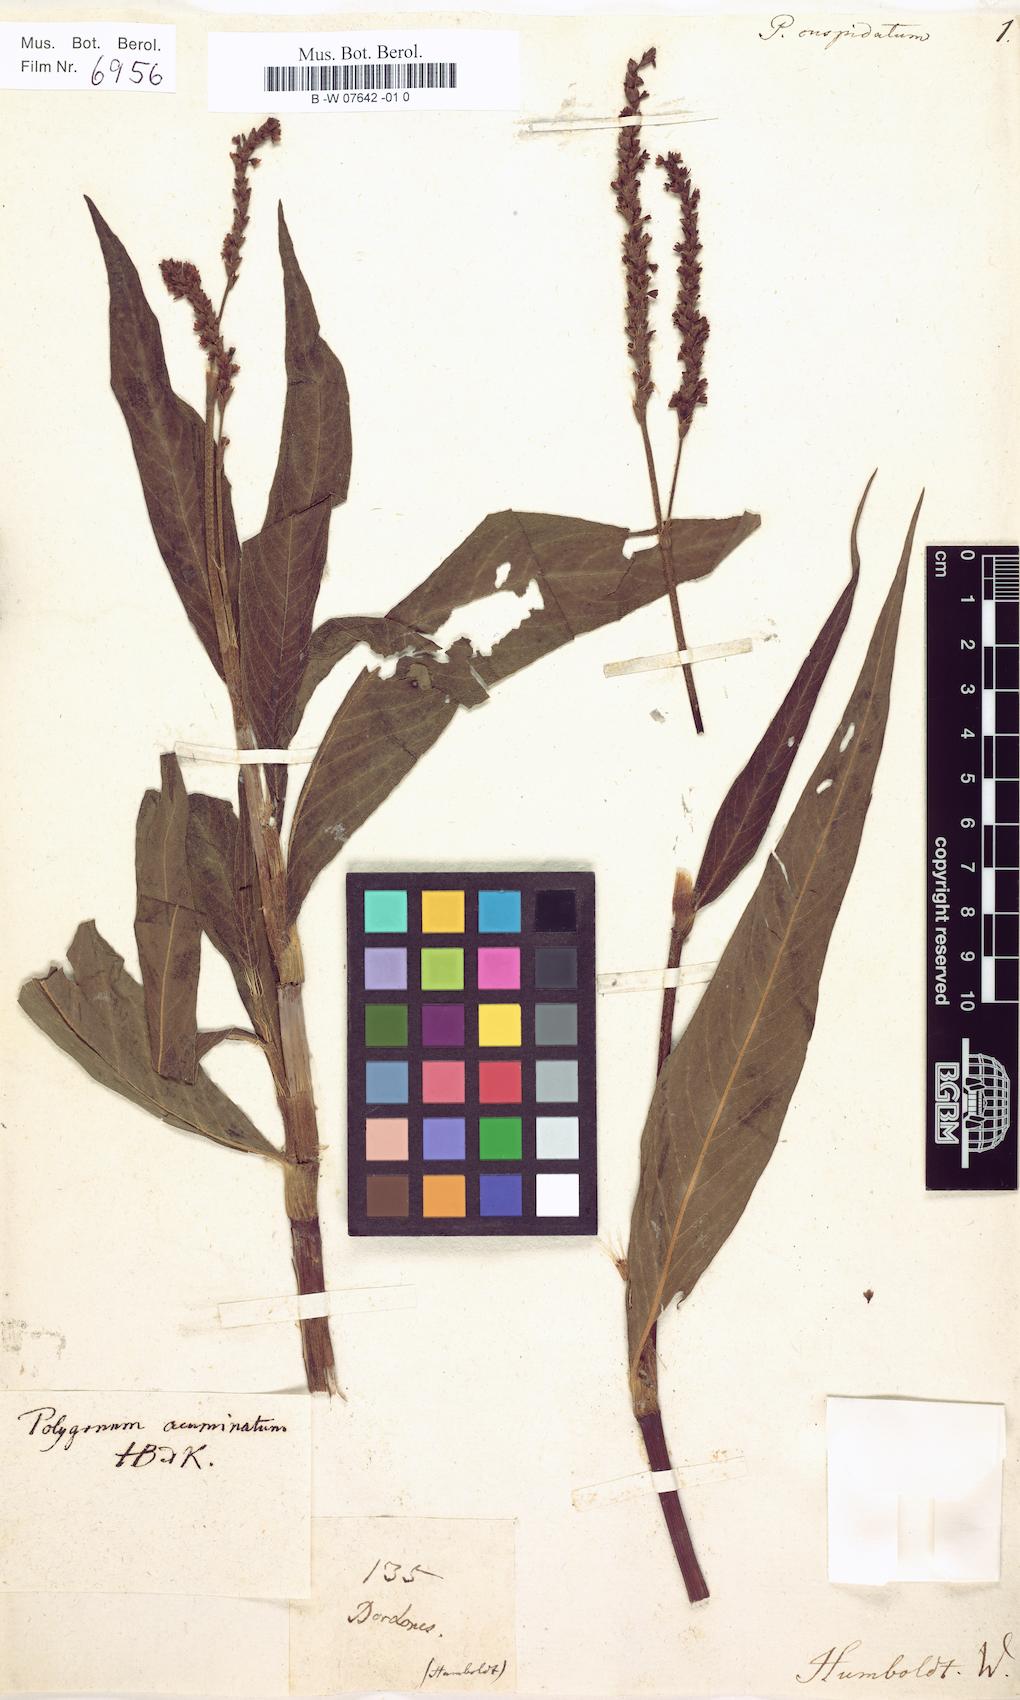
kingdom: Plantae
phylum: Tracheophyta
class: Magnoliopsida
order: Caryophyllales
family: Polygonaceae
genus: Persicaria
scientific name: Persicaria acuminata
